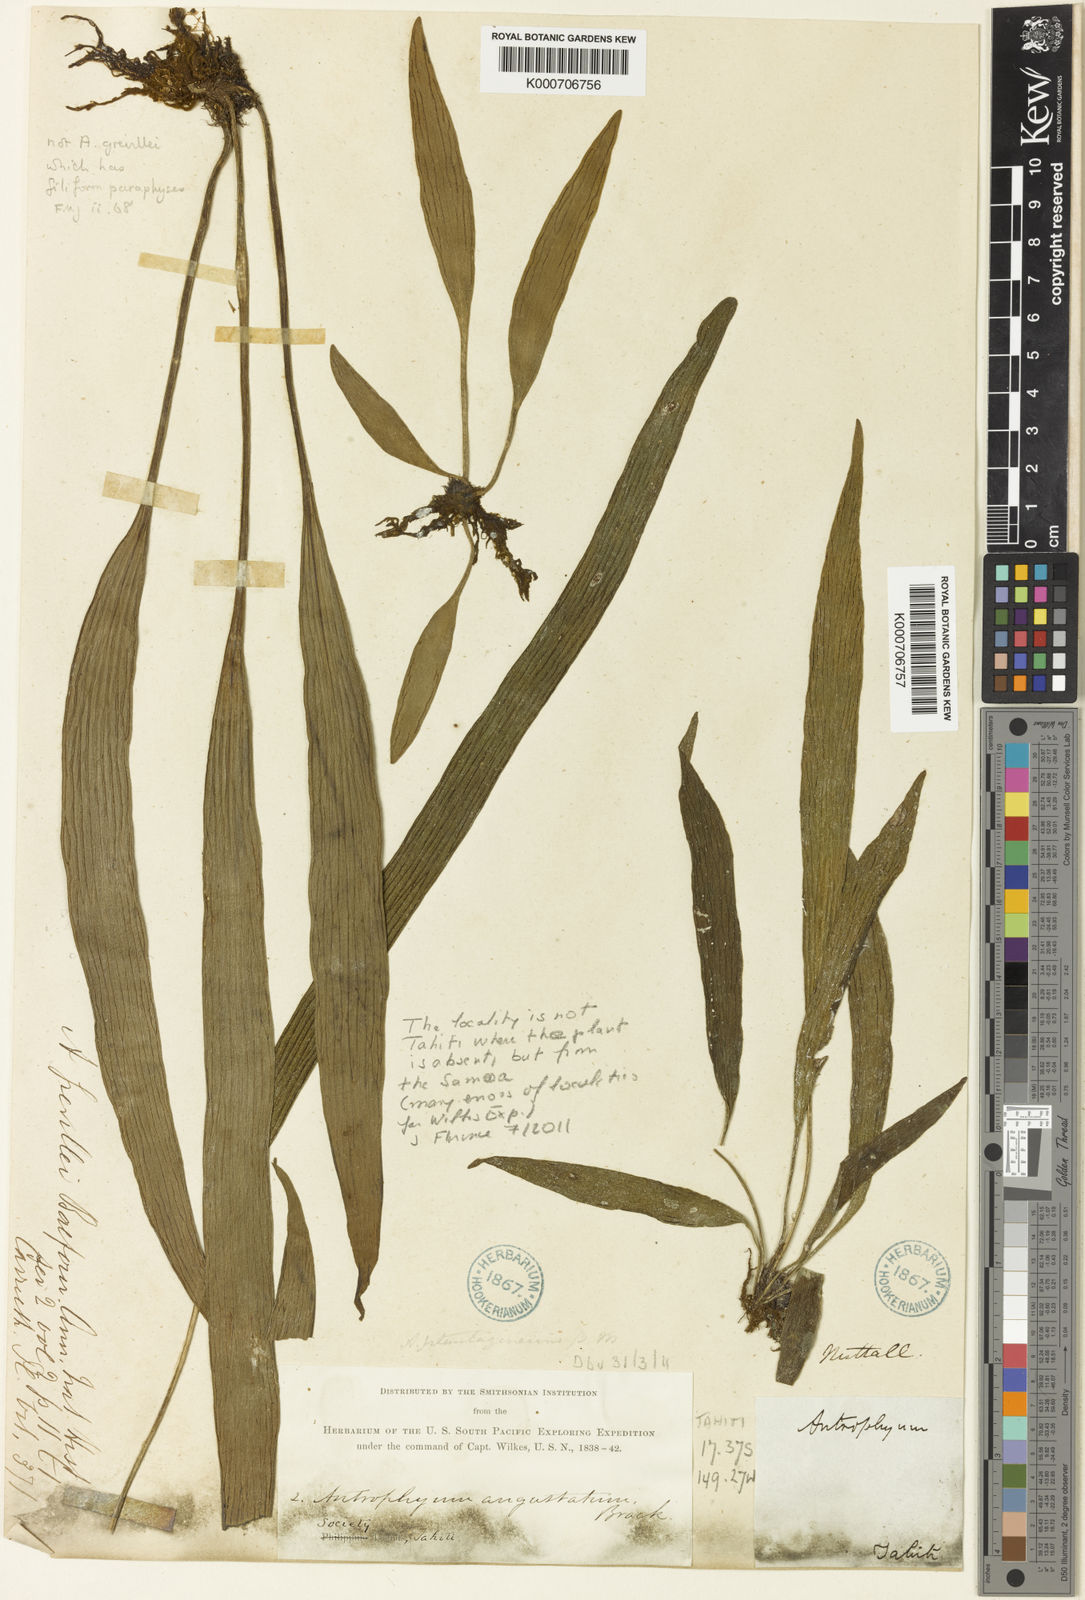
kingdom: Plantae
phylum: Tracheophyta
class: Polypodiopsida
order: Polypodiales
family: Pteridaceae
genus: Antrophyum
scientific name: Antrophyum novae-caledoniae
